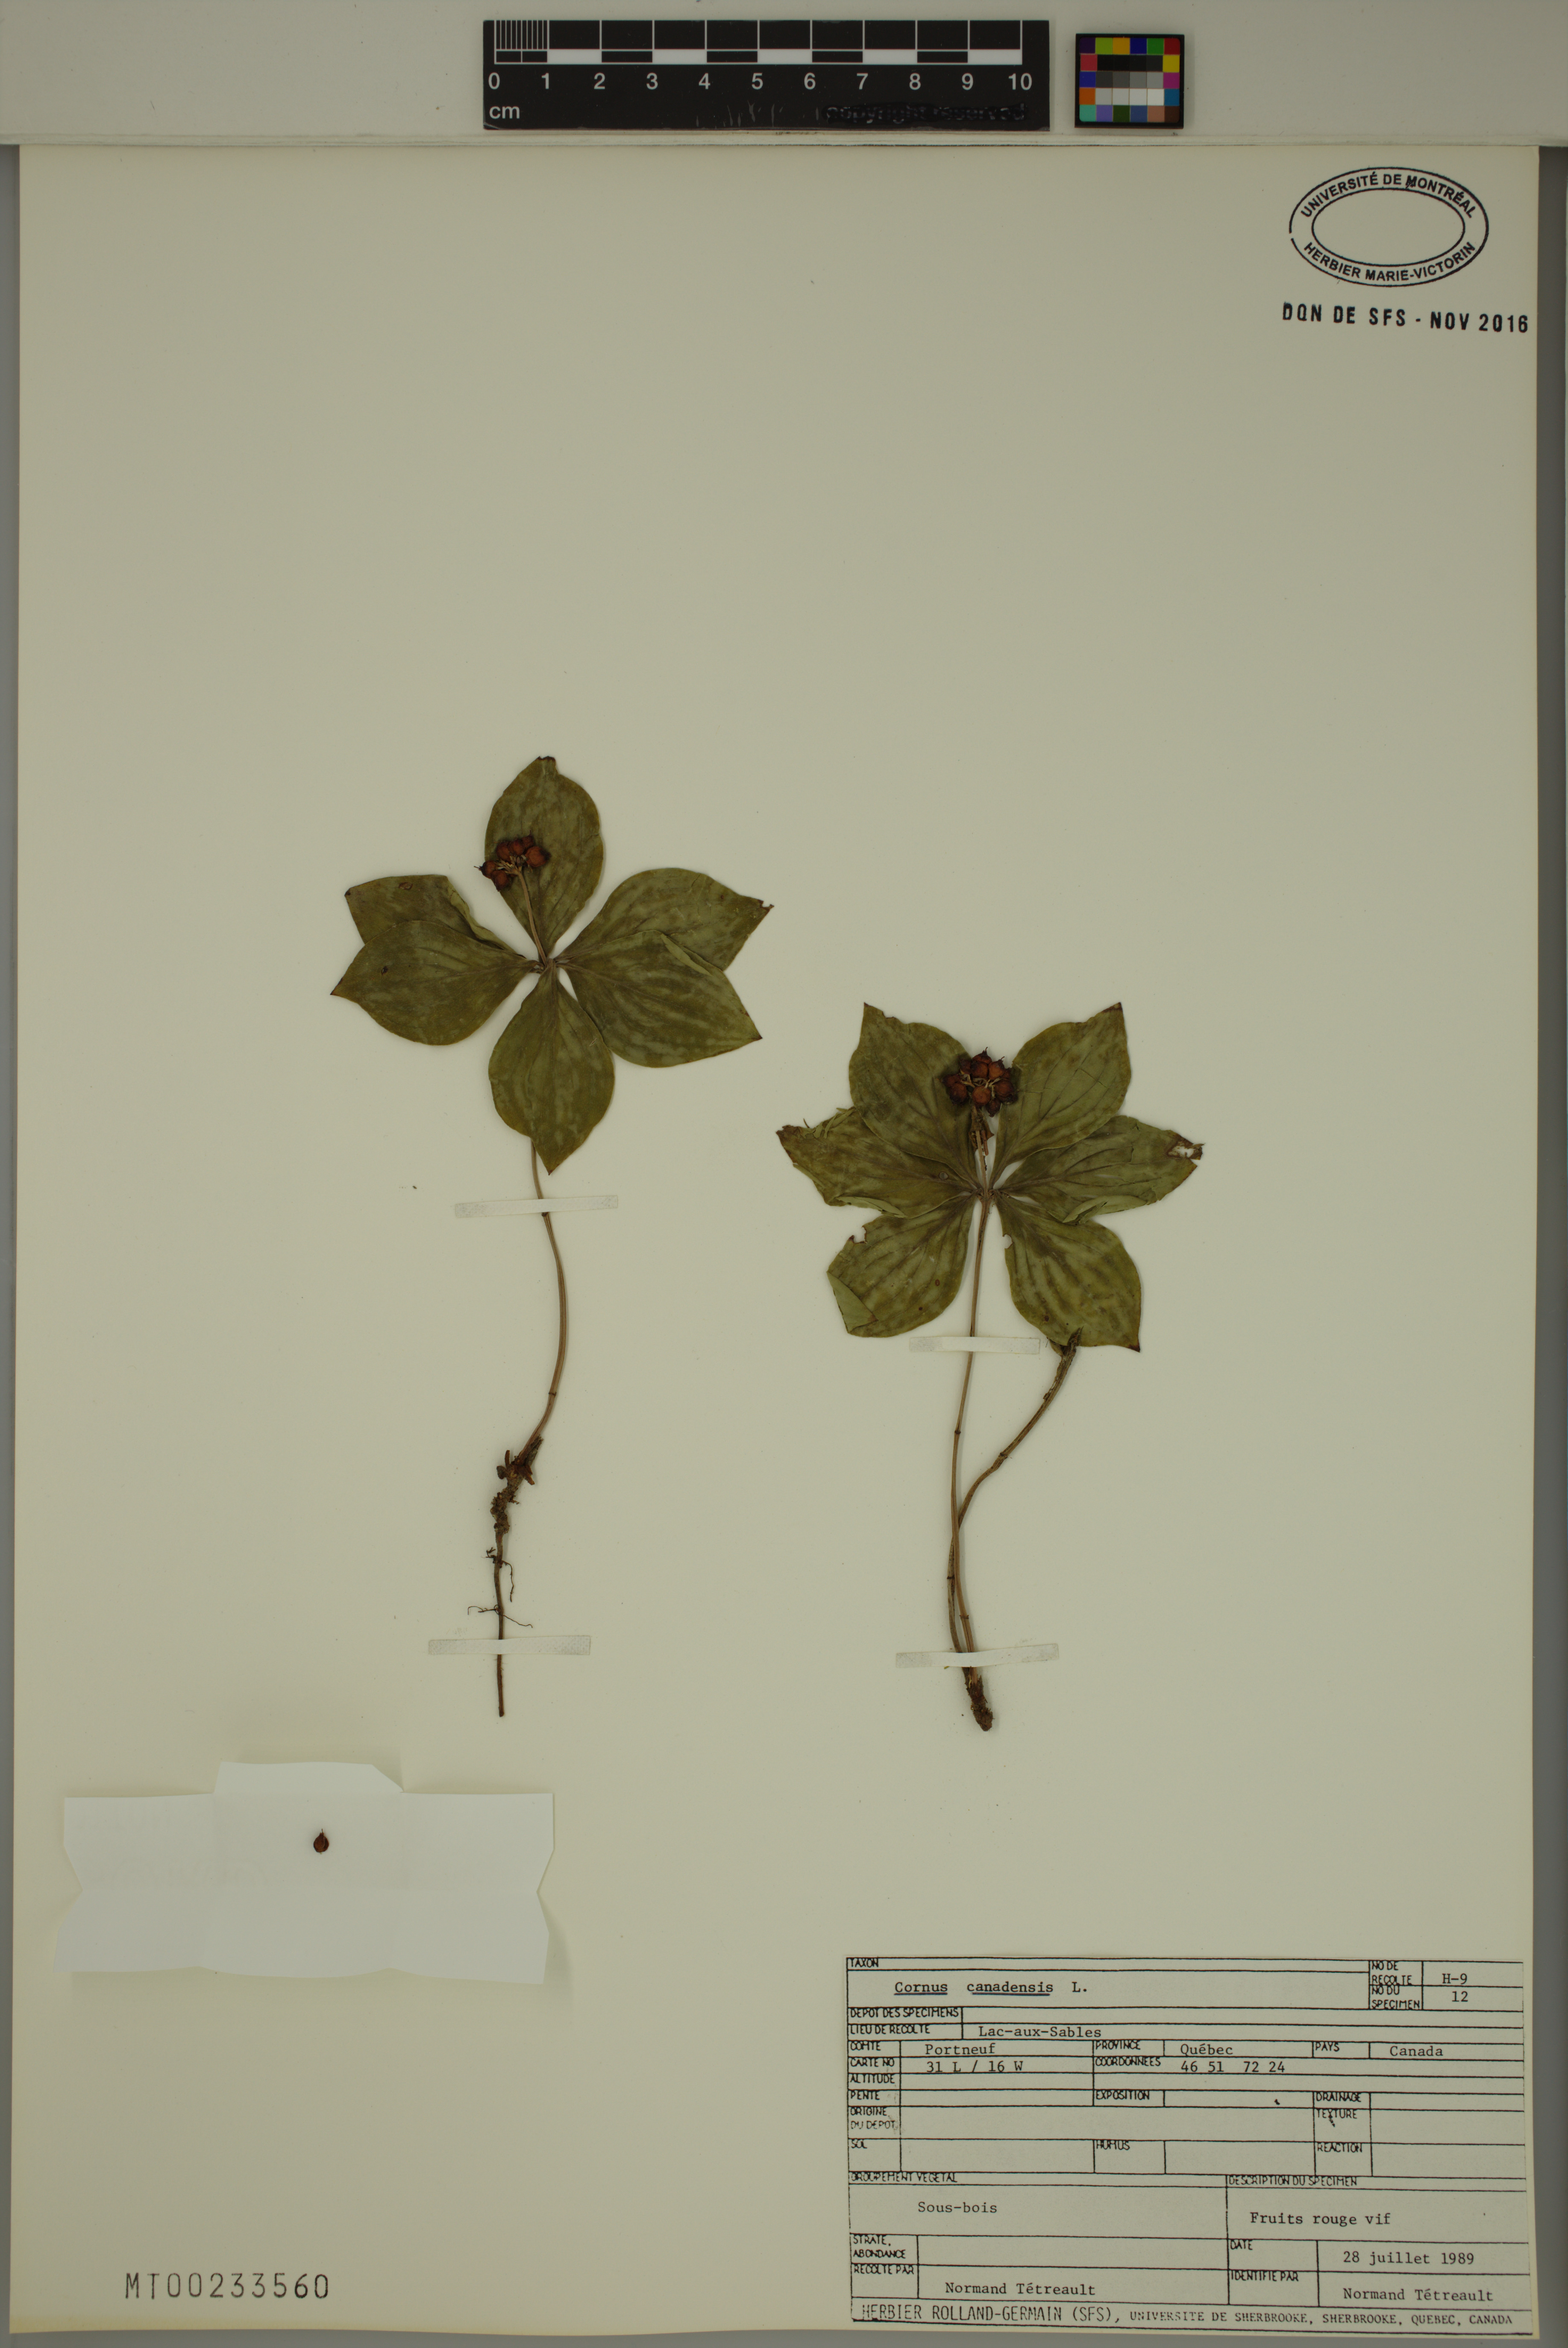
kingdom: Plantae
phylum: Tracheophyta
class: Magnoliopsida
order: Cornales
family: Cornaceae
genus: Cornus
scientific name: Cornus canadensis
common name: Creeping dogwood
